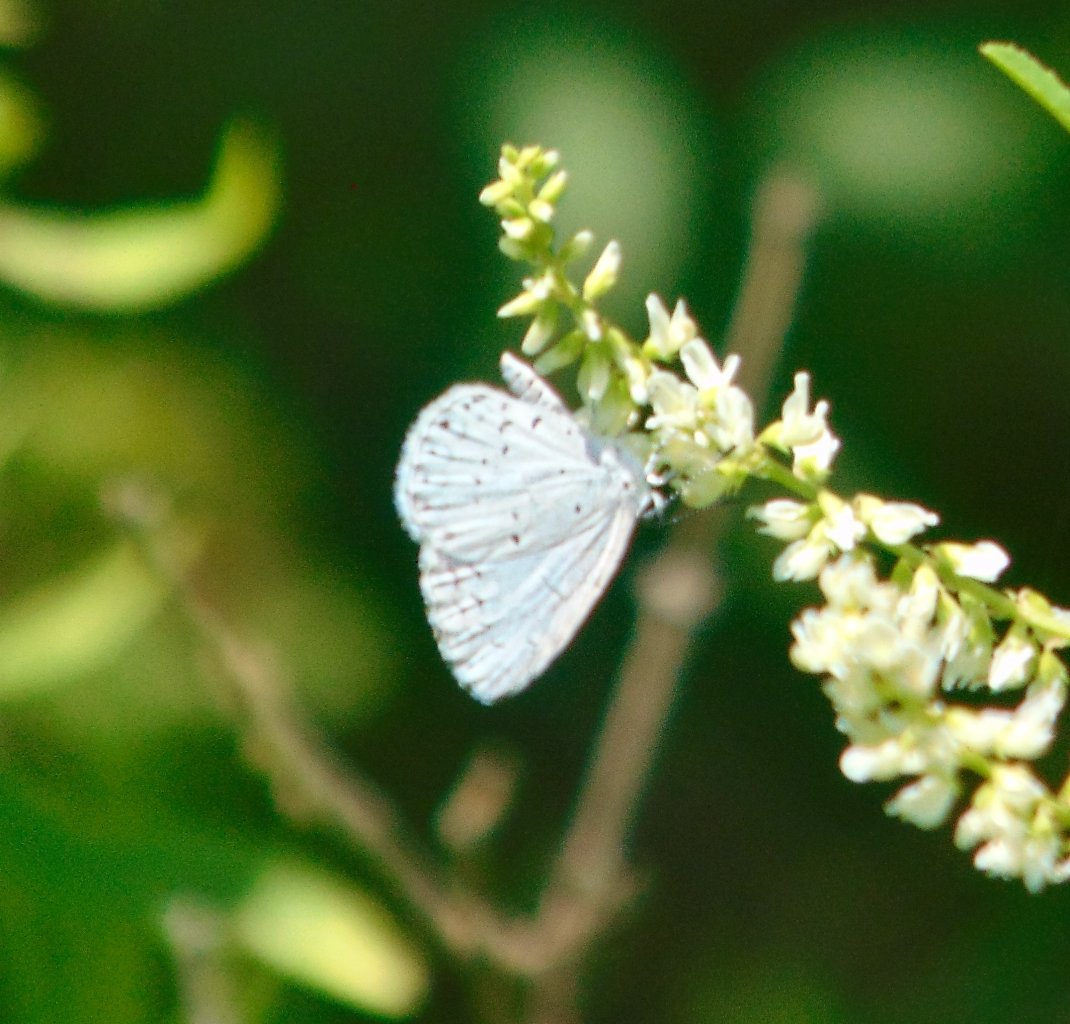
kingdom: Animalia
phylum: Arthropoda
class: Insecta
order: Lepidoptera
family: Lycaenidae
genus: Cyaniris
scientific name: Cyaniris neglecta
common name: Summer Azure
